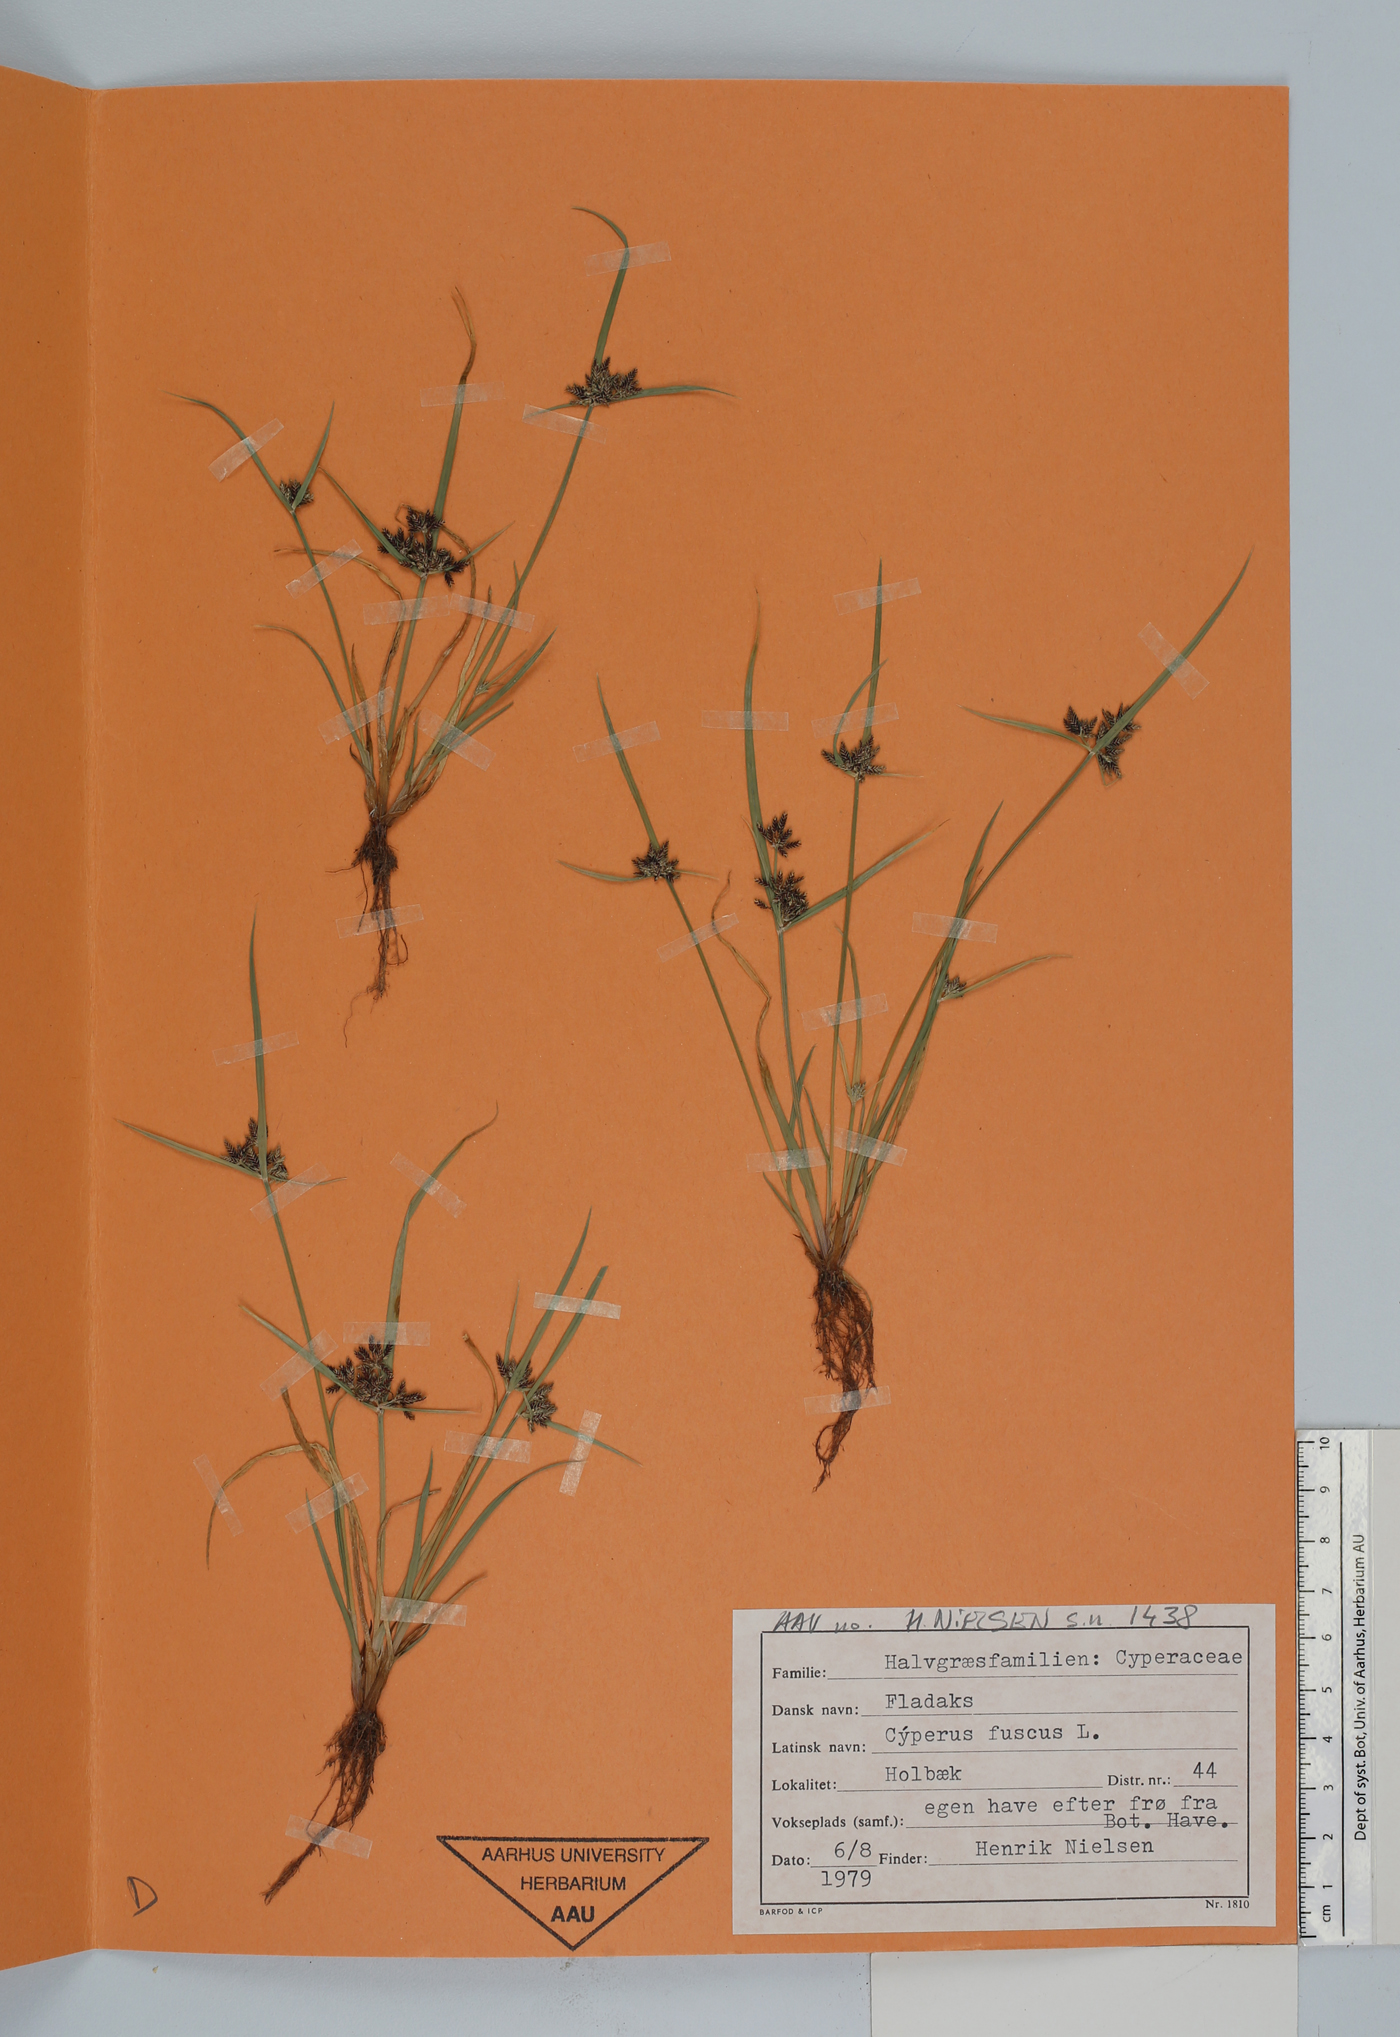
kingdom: Plantae
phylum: Tracheophyta
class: Liliopsida
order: Poales
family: Cyperaceae
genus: Cyperus
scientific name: Cyperus fuscus
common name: Brown galingale
